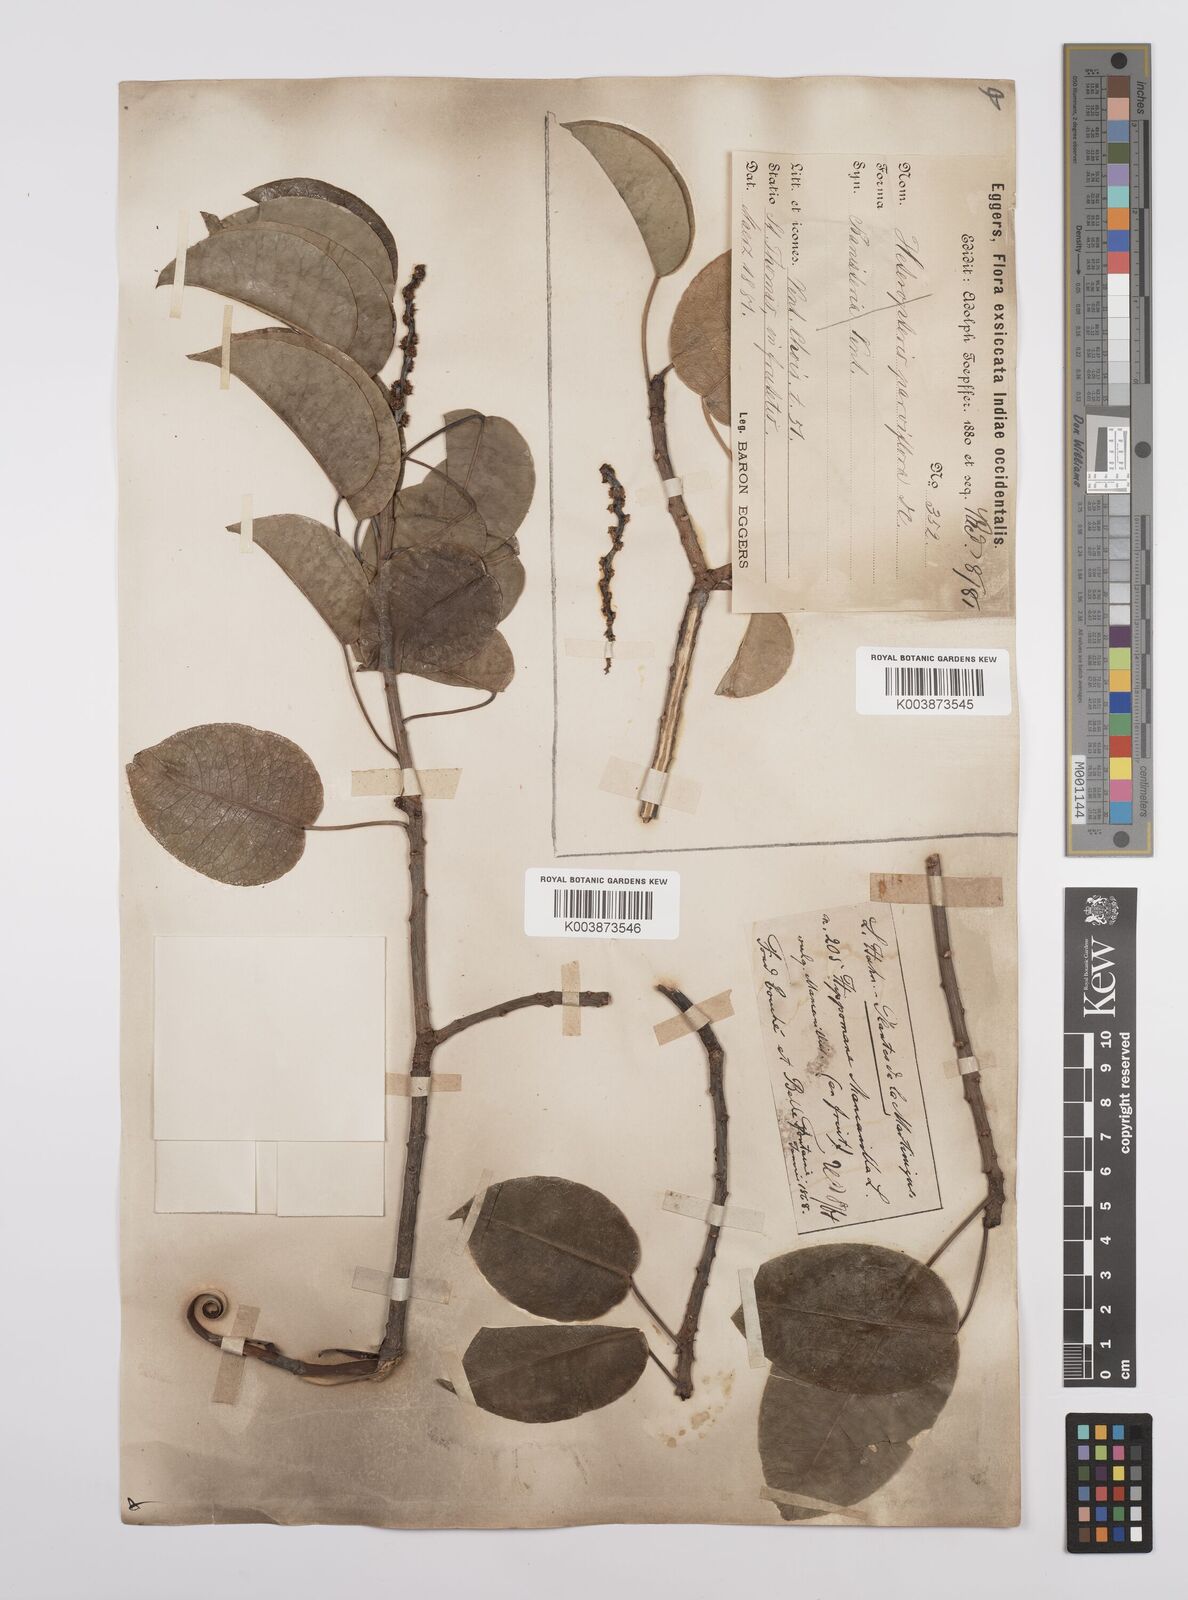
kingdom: Plantae
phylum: Tracheophyta
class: Magnoliopsida
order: Malpighiales
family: Euphorbiaceae
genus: Hippomane
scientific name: Hippomane mancinella
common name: Manchineel
